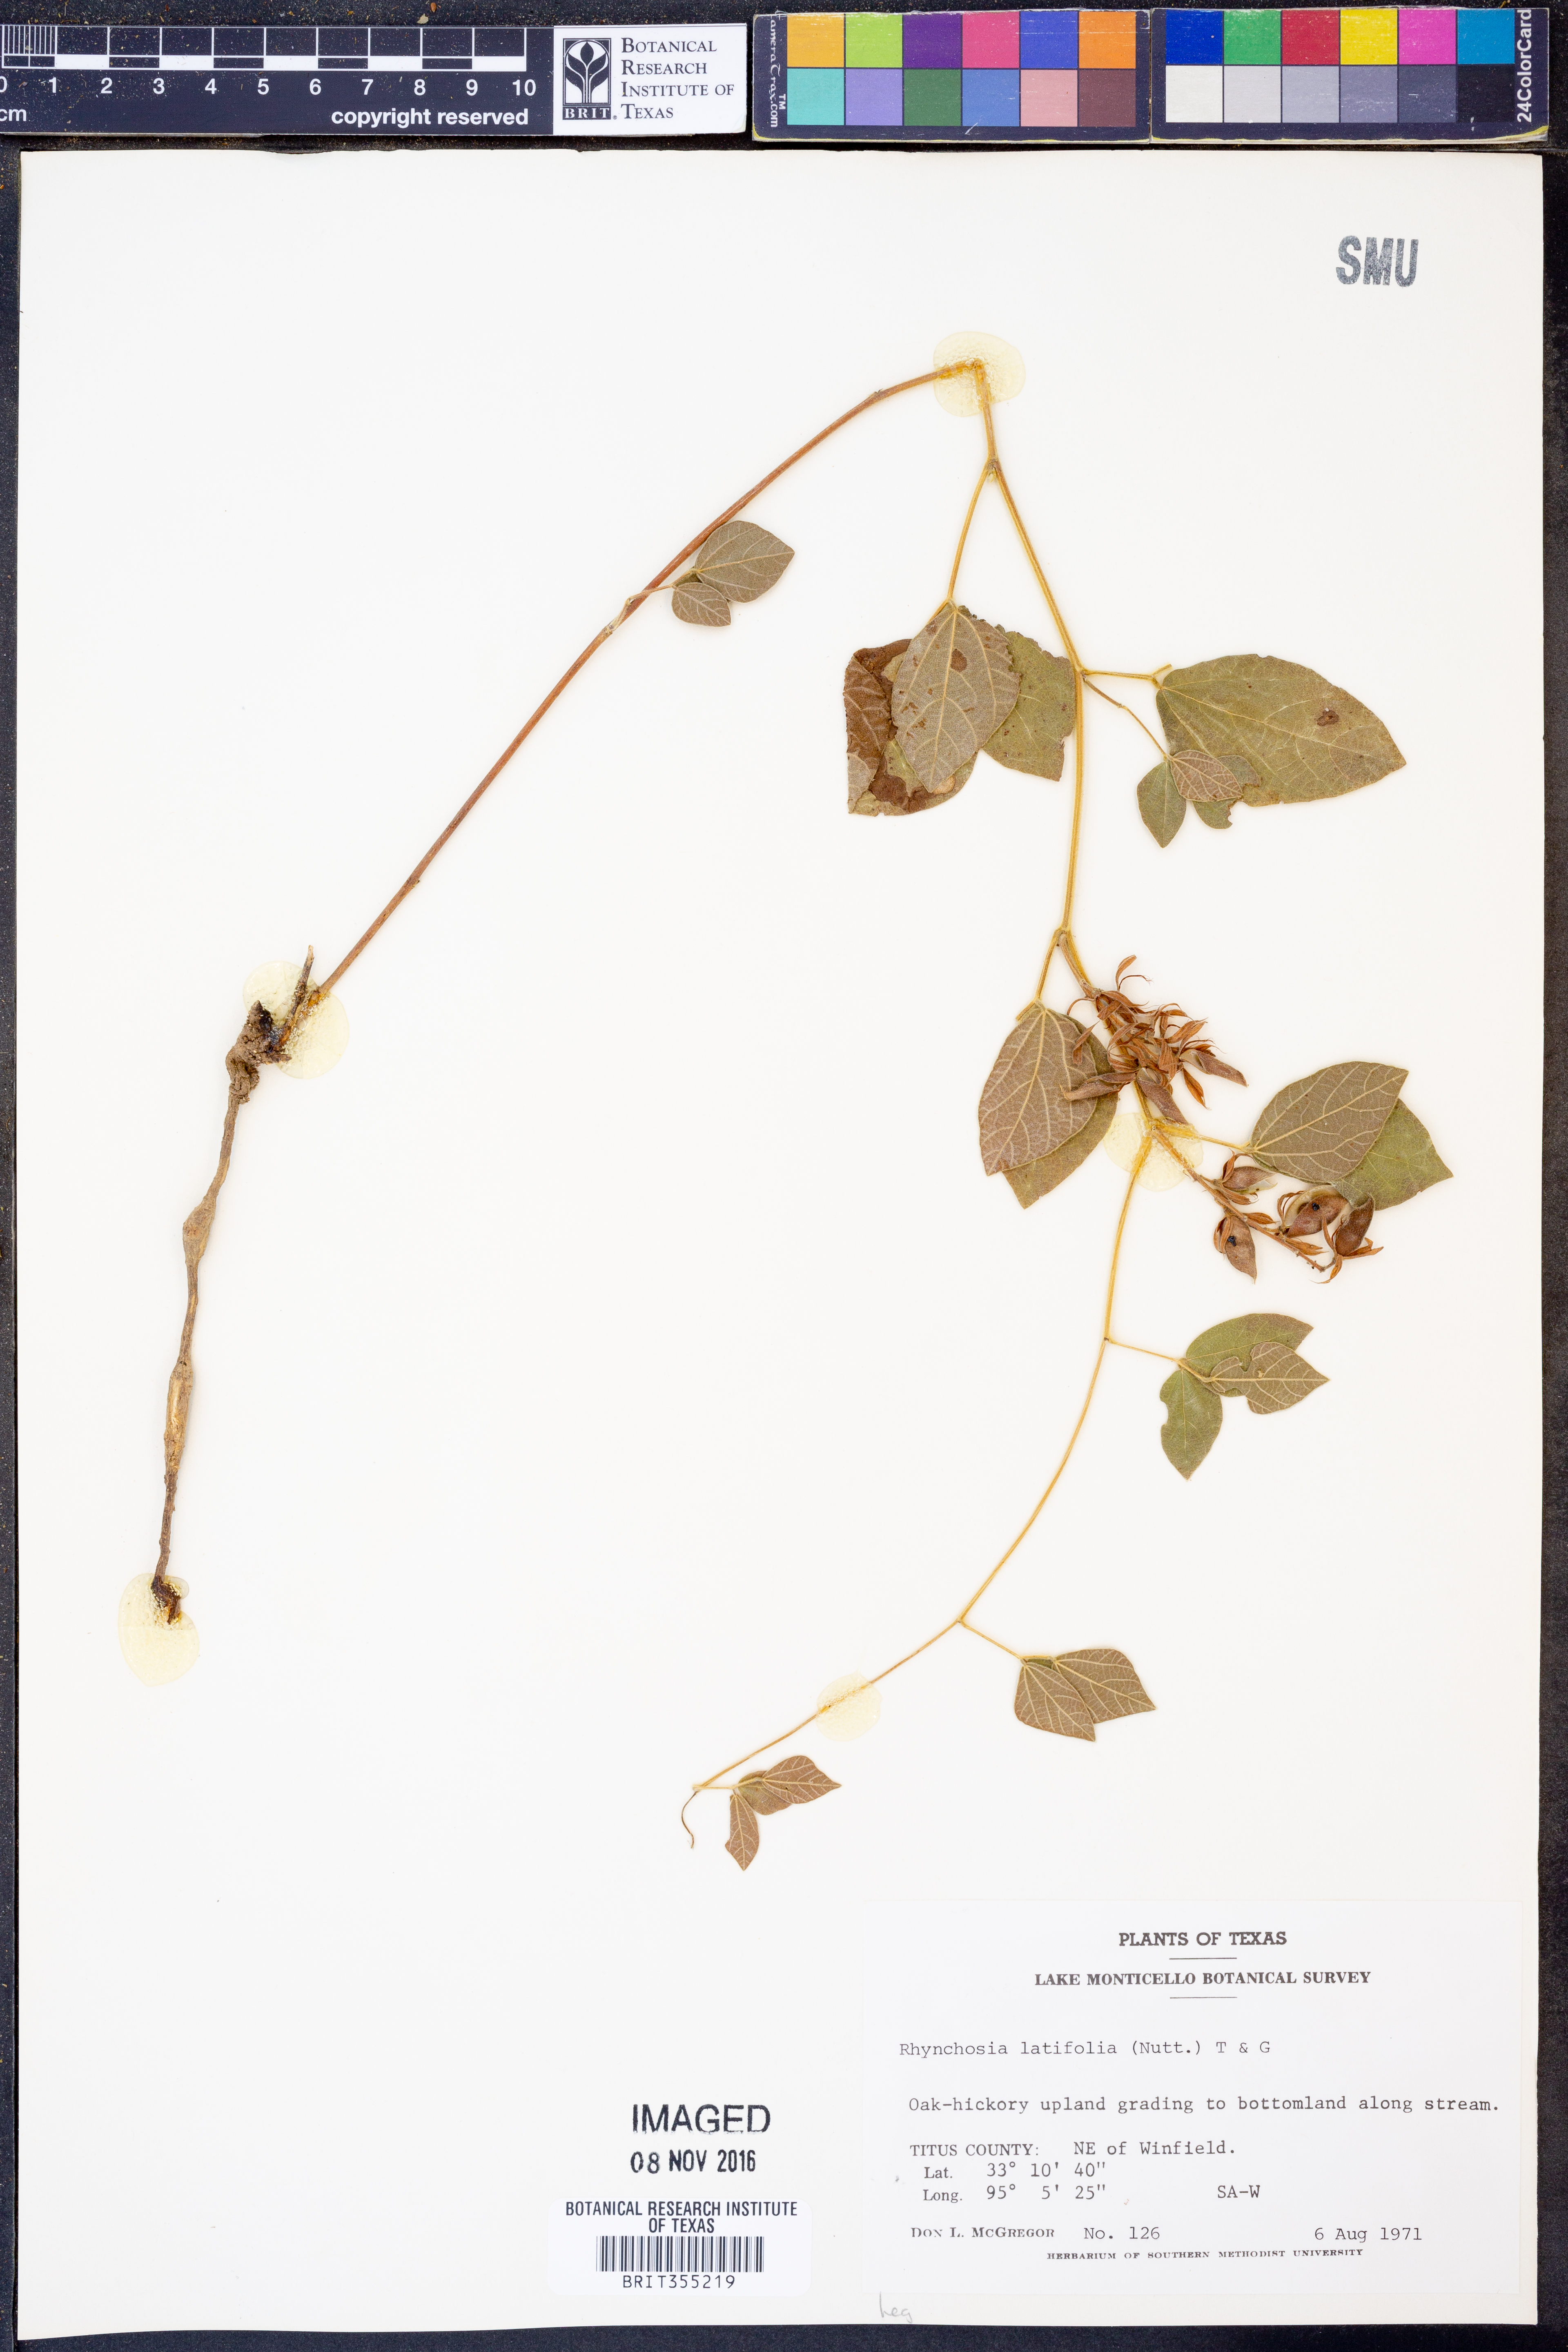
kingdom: Plantae
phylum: Tracheophyta
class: Magnoliopsida
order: Fabales
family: Fabaceae
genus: Rhynchosia
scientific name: Rhynchosia latifolia
